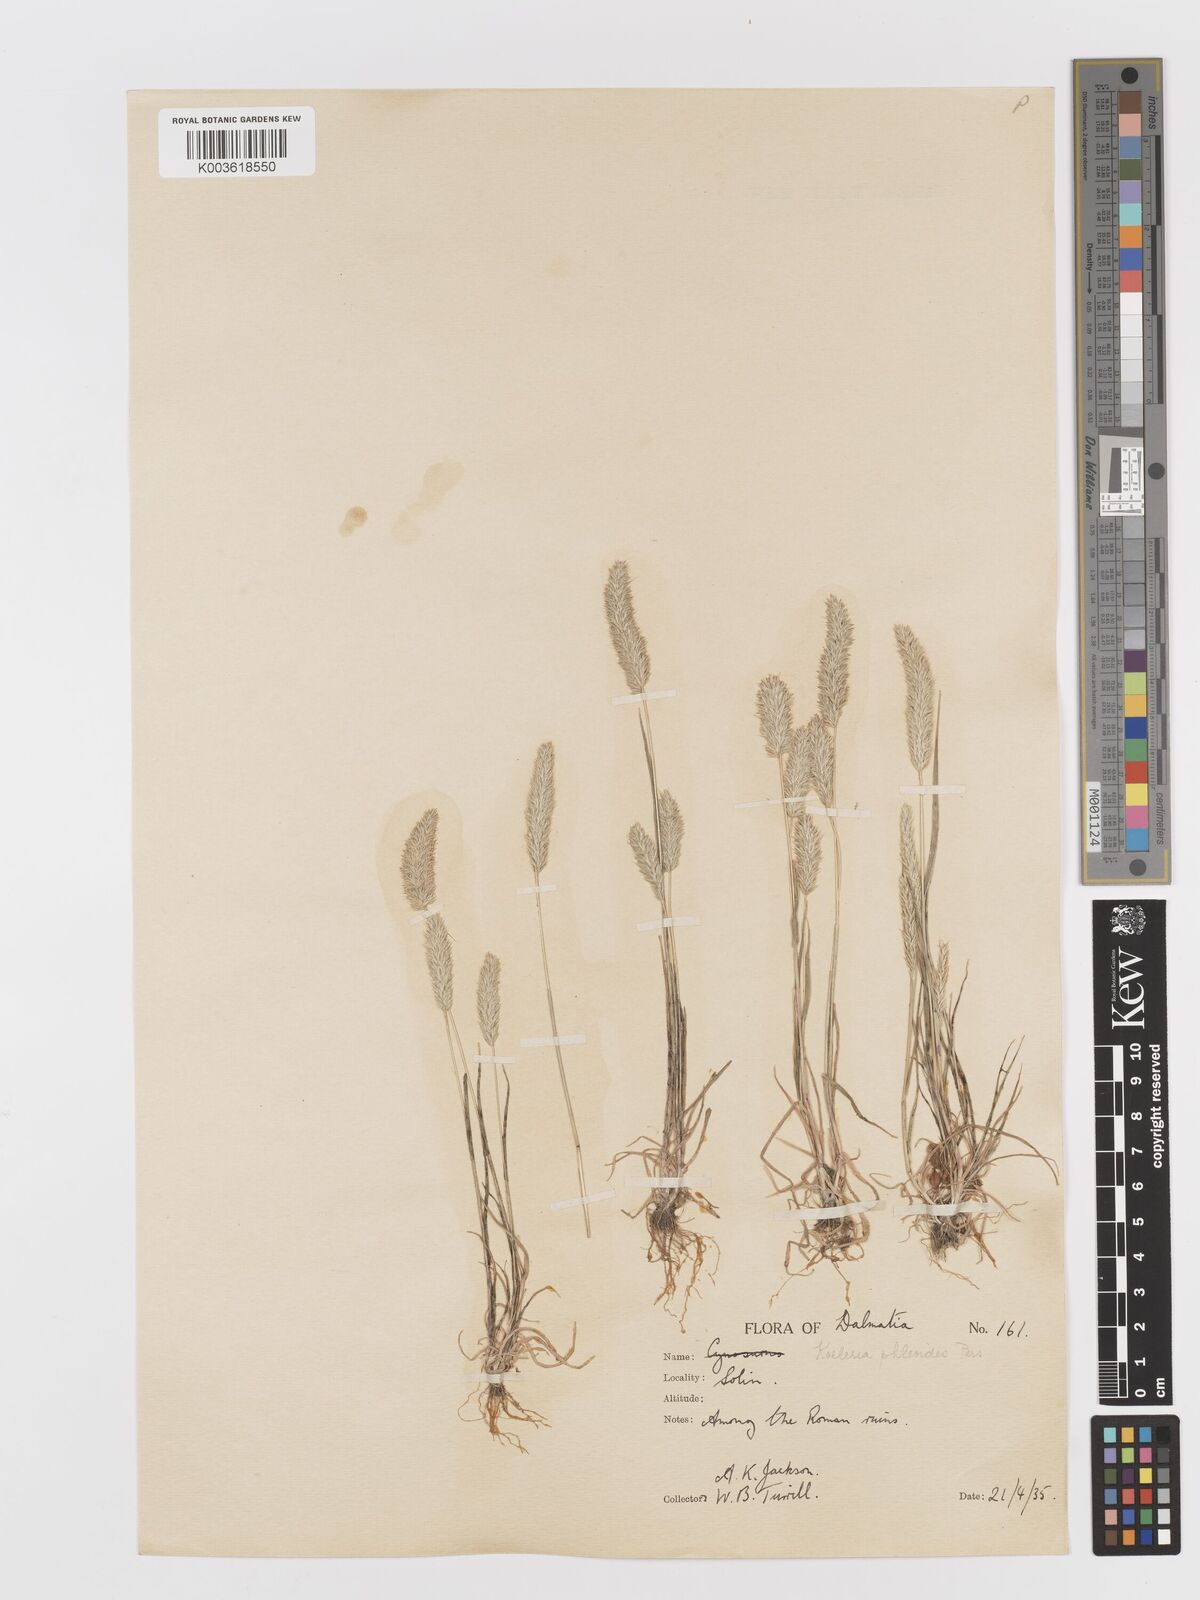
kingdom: Plantae
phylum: Tracheophyta
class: Liliopsida
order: Poales
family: Poaceae
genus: Rostraria
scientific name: Rostraria cristata
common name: Mediterranean hair-grass
